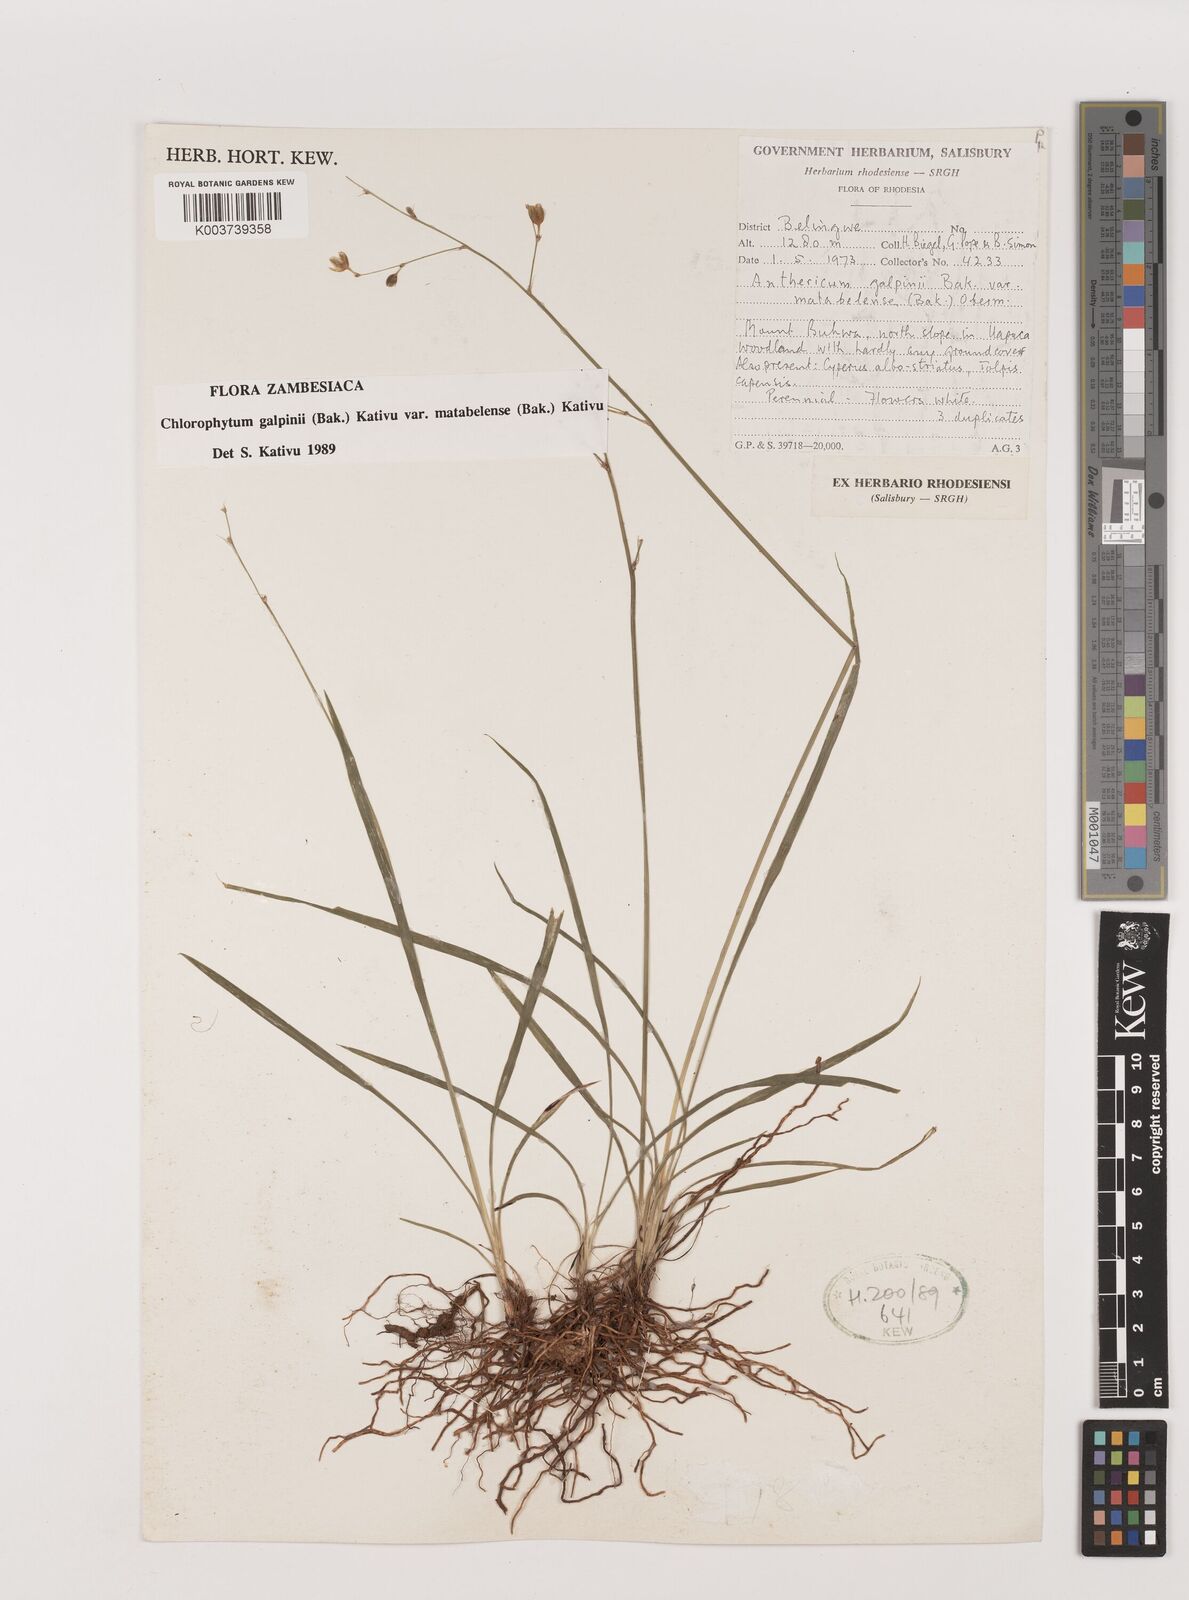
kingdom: Plantae
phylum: Tracheophyta
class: Liliopsida
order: Asparagales
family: Asparagaceae
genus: Chlorophytum
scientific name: Chlorophytum galpinii
